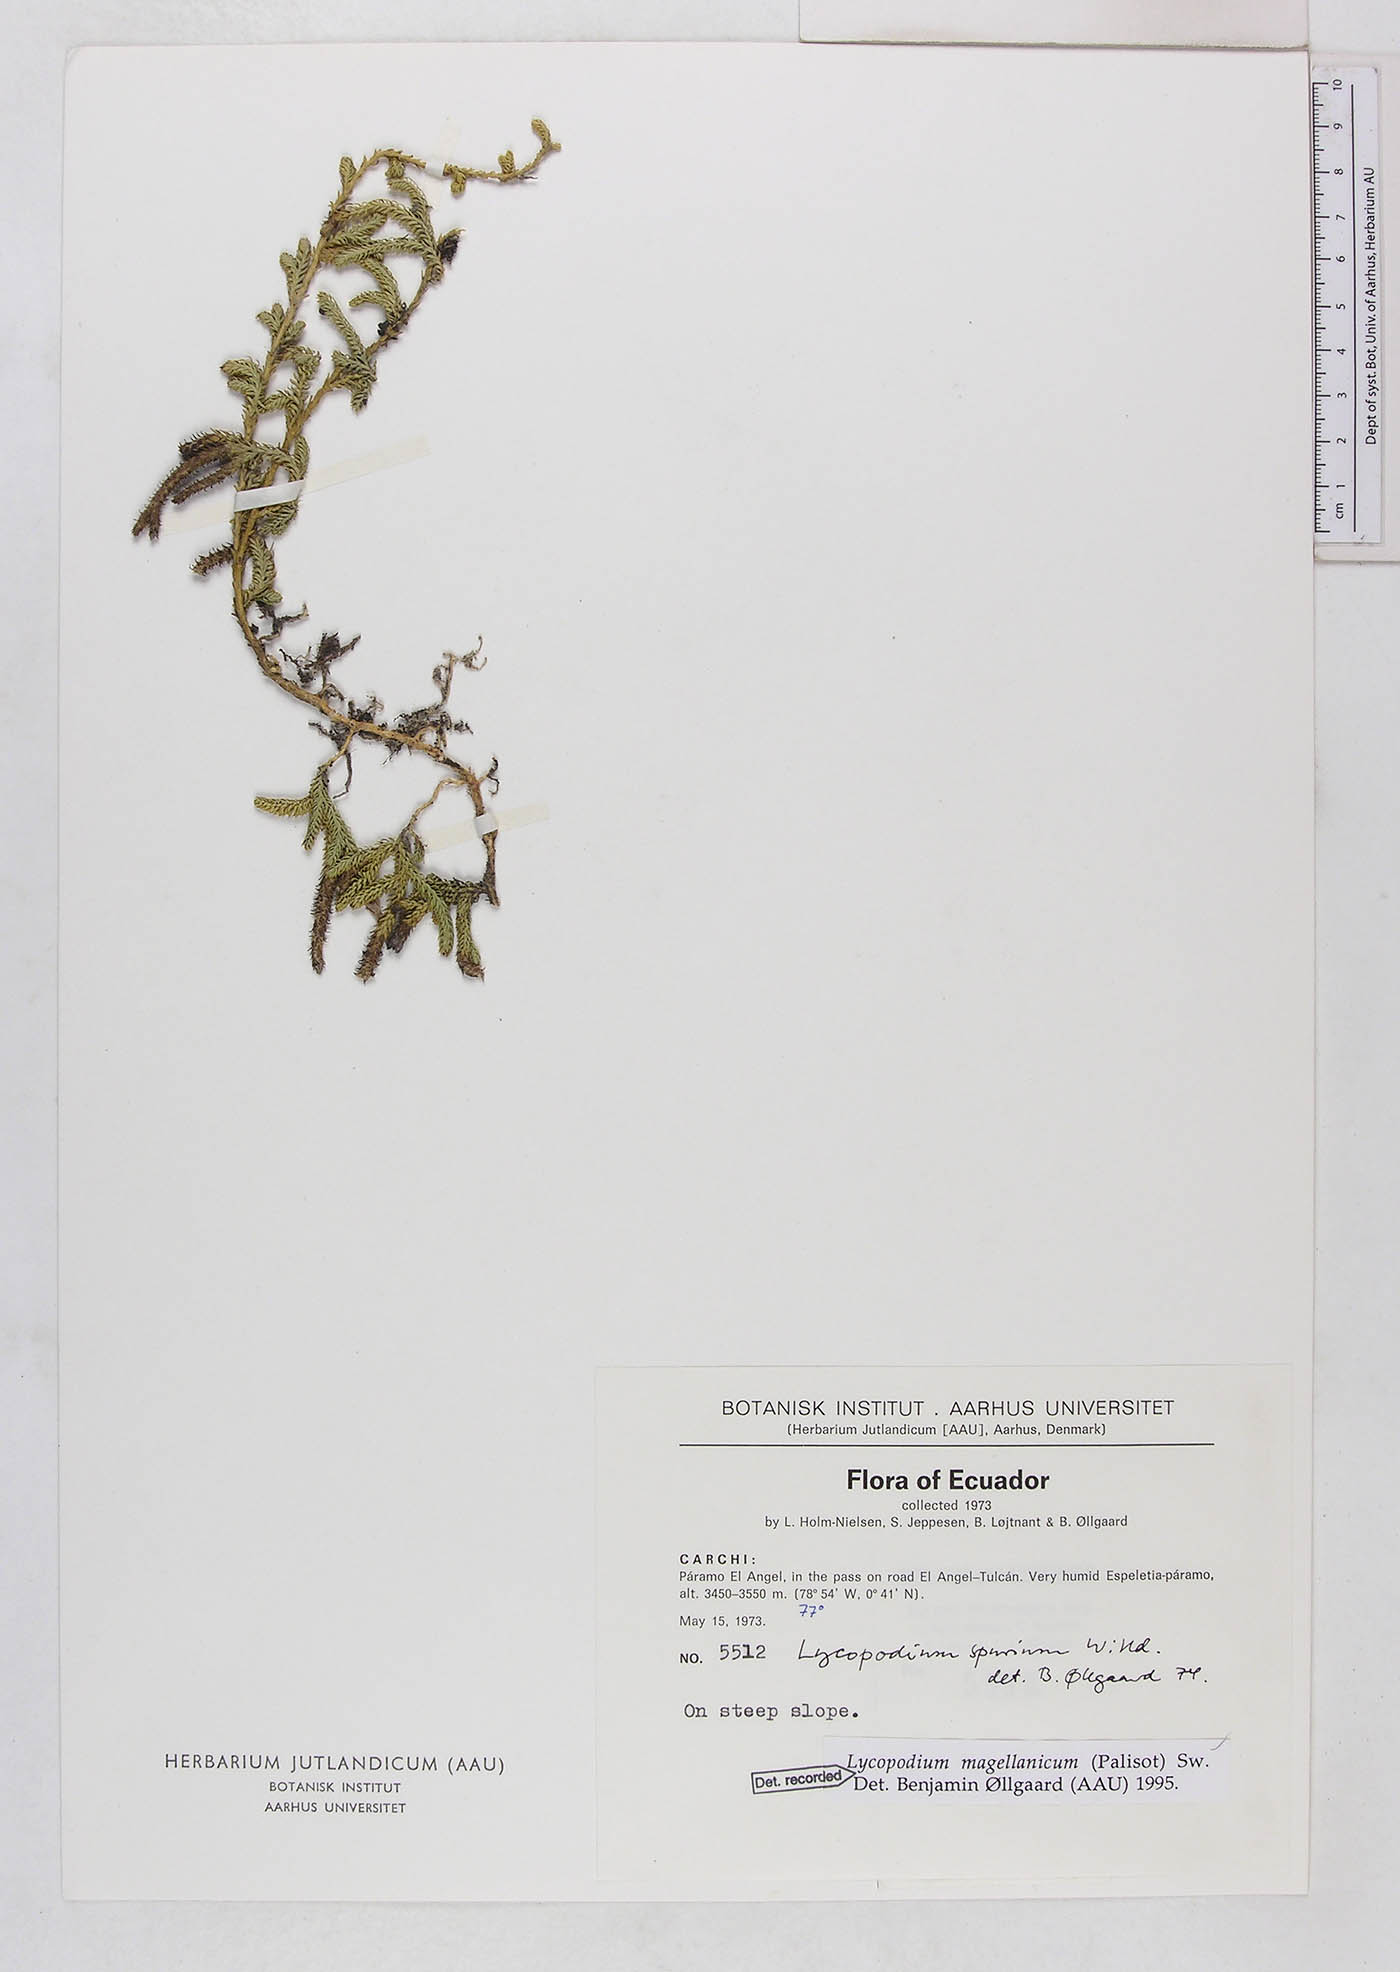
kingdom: Plantae
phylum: Tracheophyta
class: Lycopodiopsida
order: Lycopodiales
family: Lycopodiaceae
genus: Austrolycopodium
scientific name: Austrolycopodium magellanicum
